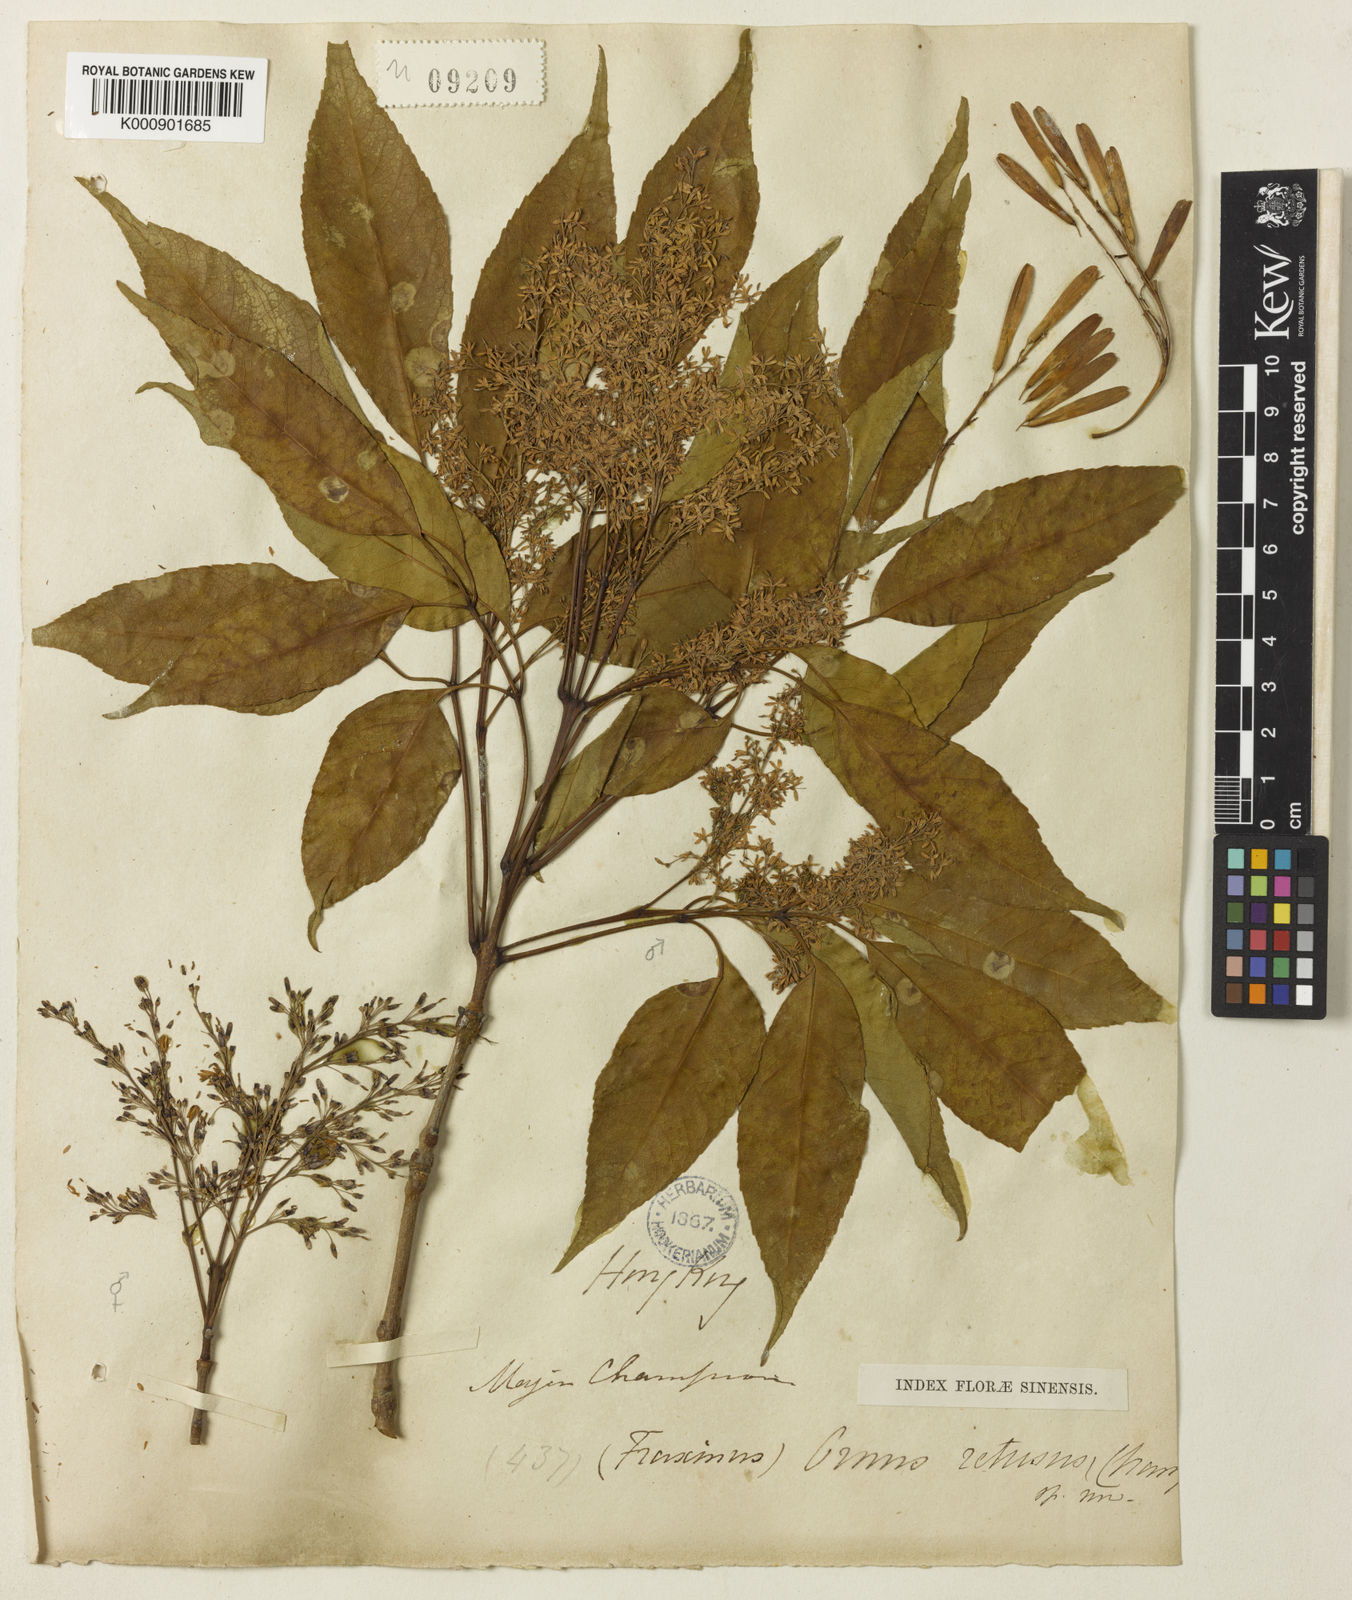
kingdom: Plantae
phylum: Tracheophyta
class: Magnoliopsida
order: Lamiales
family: Oleaceae
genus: Fraxinus
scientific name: Fraxinus floribunda
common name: East indian ash
